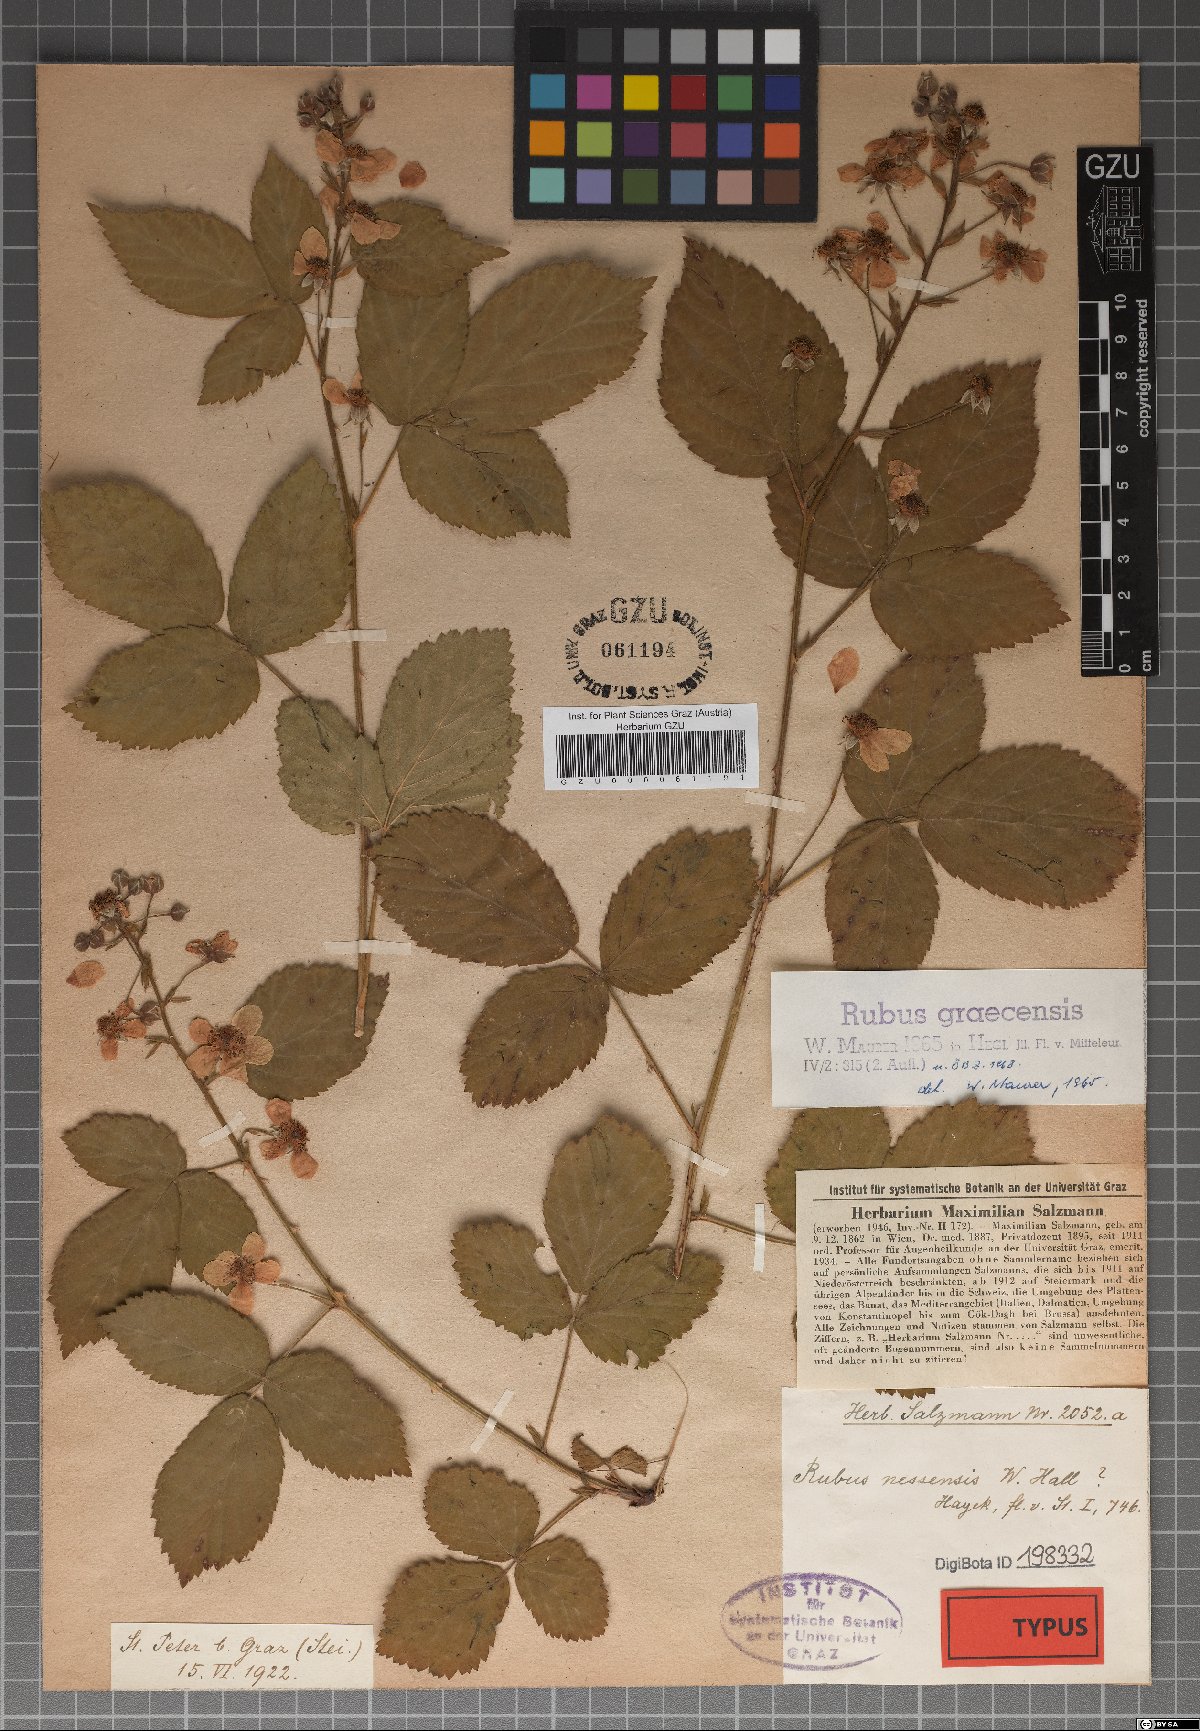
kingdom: Plantae
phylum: Tracheophyta
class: Magnoliopsida
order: Rosales
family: Rosaceae
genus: Rubus
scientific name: Rubus graecensis
